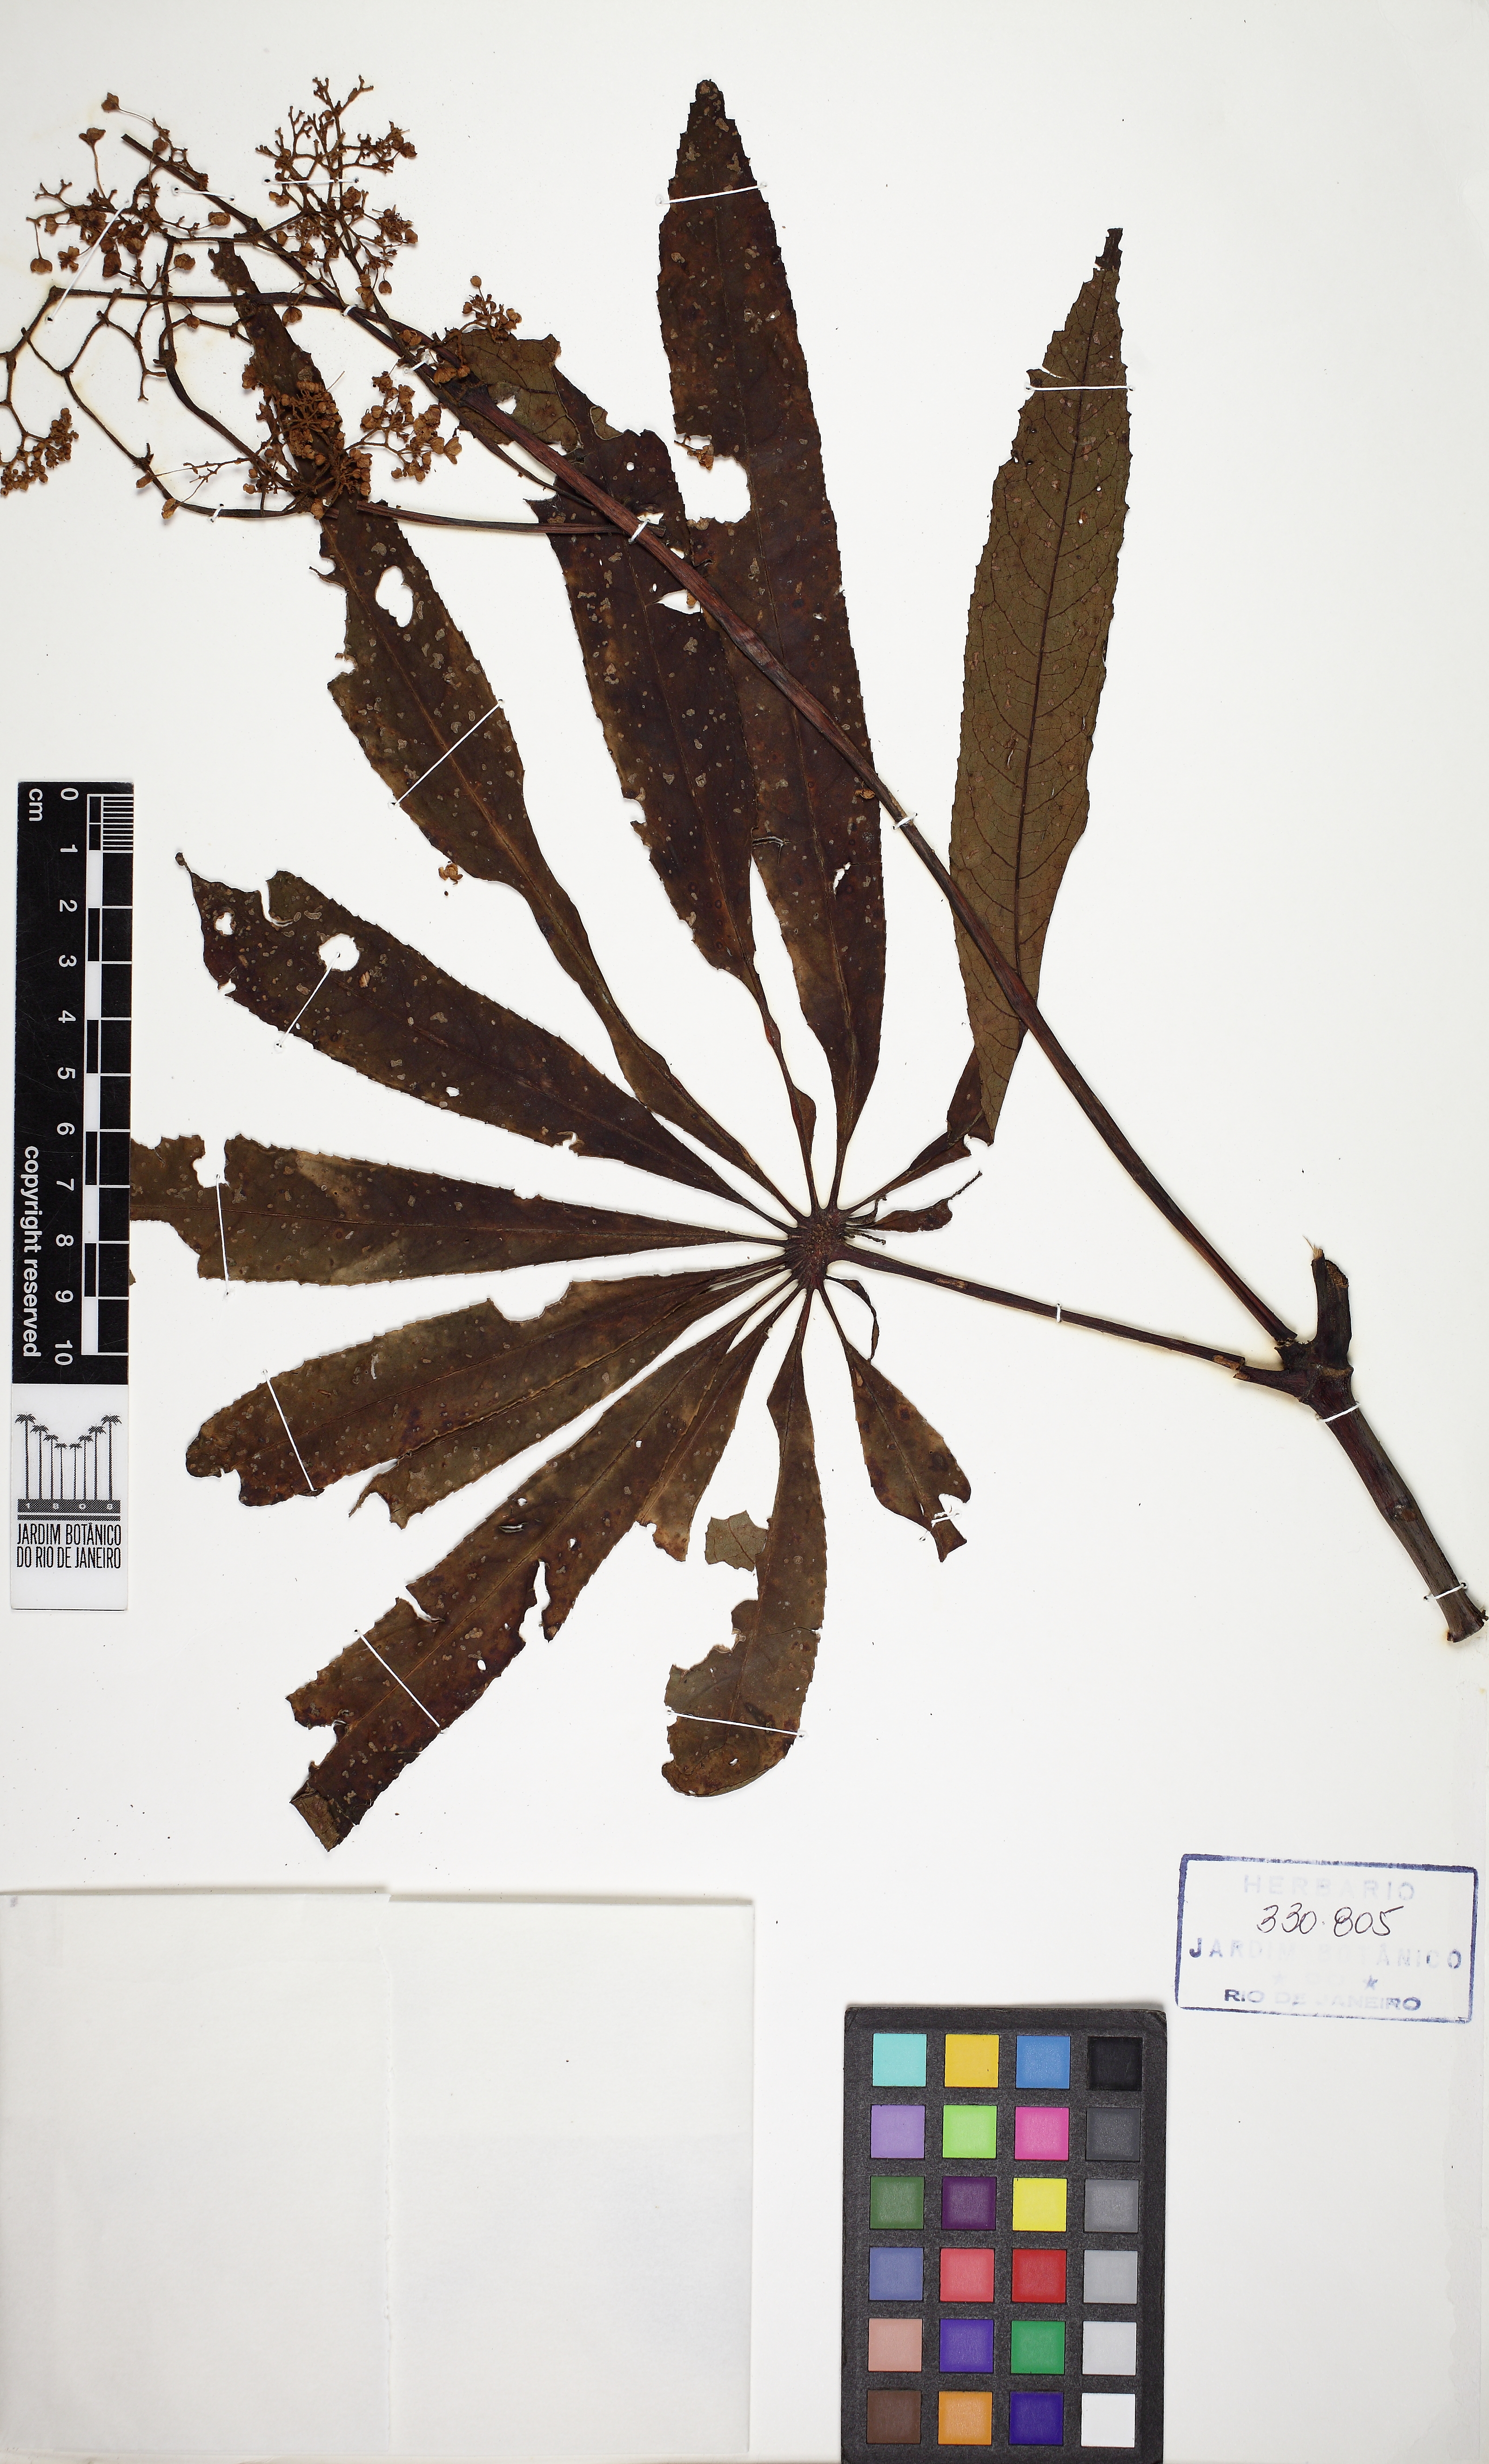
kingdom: Plantae
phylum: Tracheophyta
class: Magnoliopsida
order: Cucurbitales
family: Begoniaceae
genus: Begonia
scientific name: Begonia luxurians
